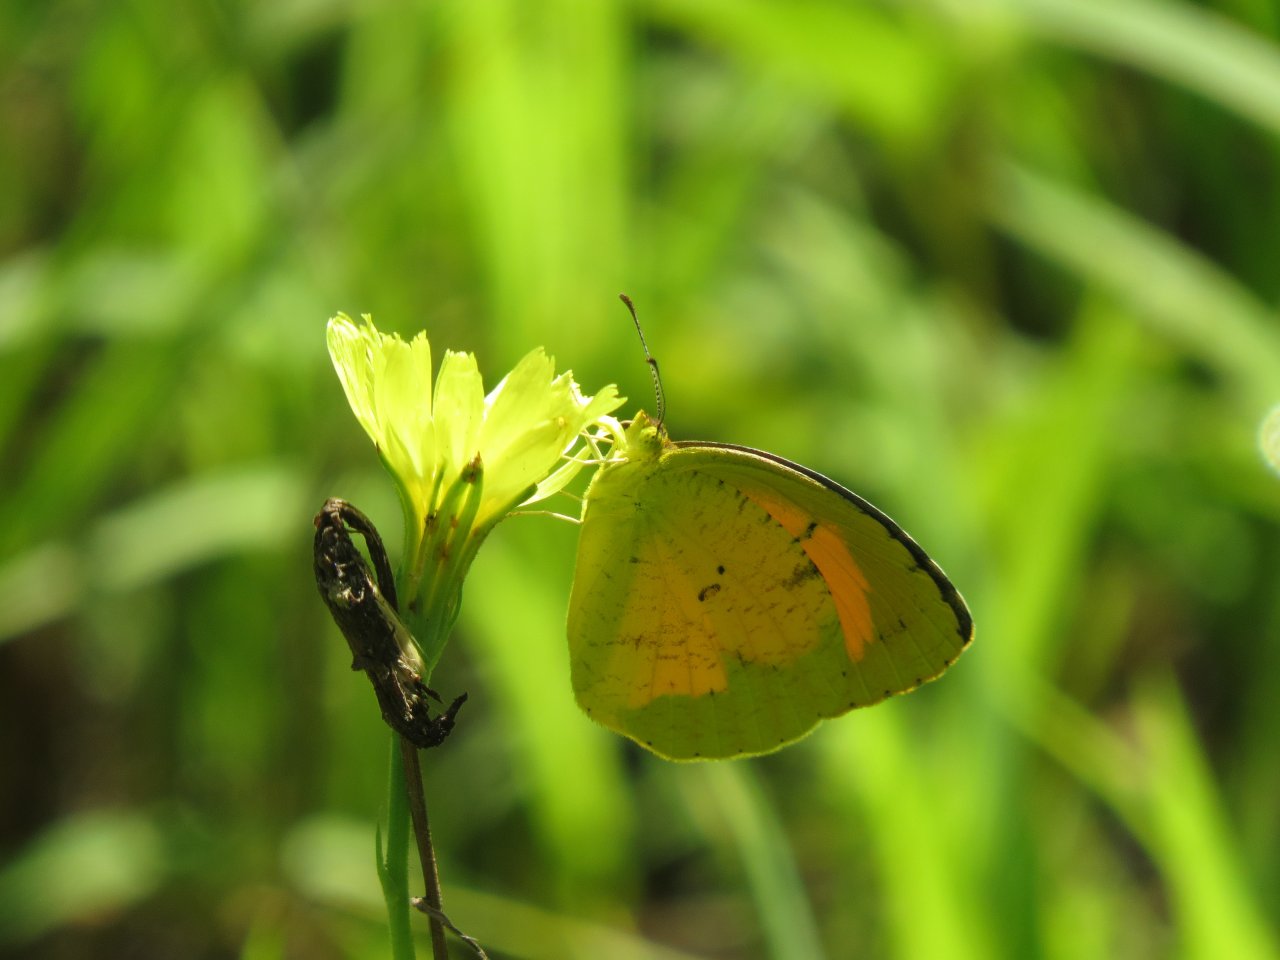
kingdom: Animalia
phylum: Arthropoda
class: Insecta
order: Lepidoptera
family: Pieridae
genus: Abaeis
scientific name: Abaeis nicippe
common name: Sleepy Orange
